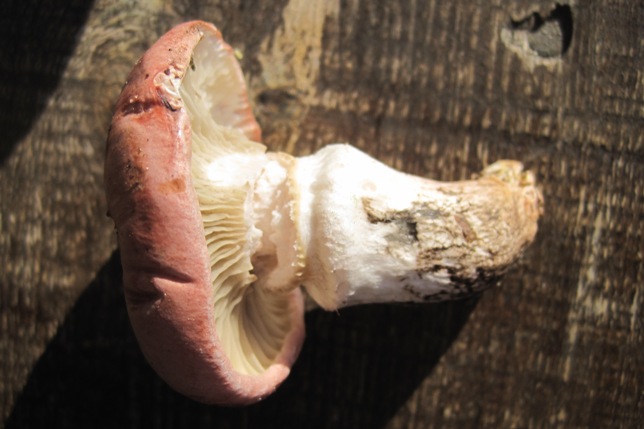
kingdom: Fungi
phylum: Basidiomycota
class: Agaricomycetes
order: Boletales
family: Gomphidiaceae
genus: Gomphidius
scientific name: Gomphidius roseus
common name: rosenrød slimslør
